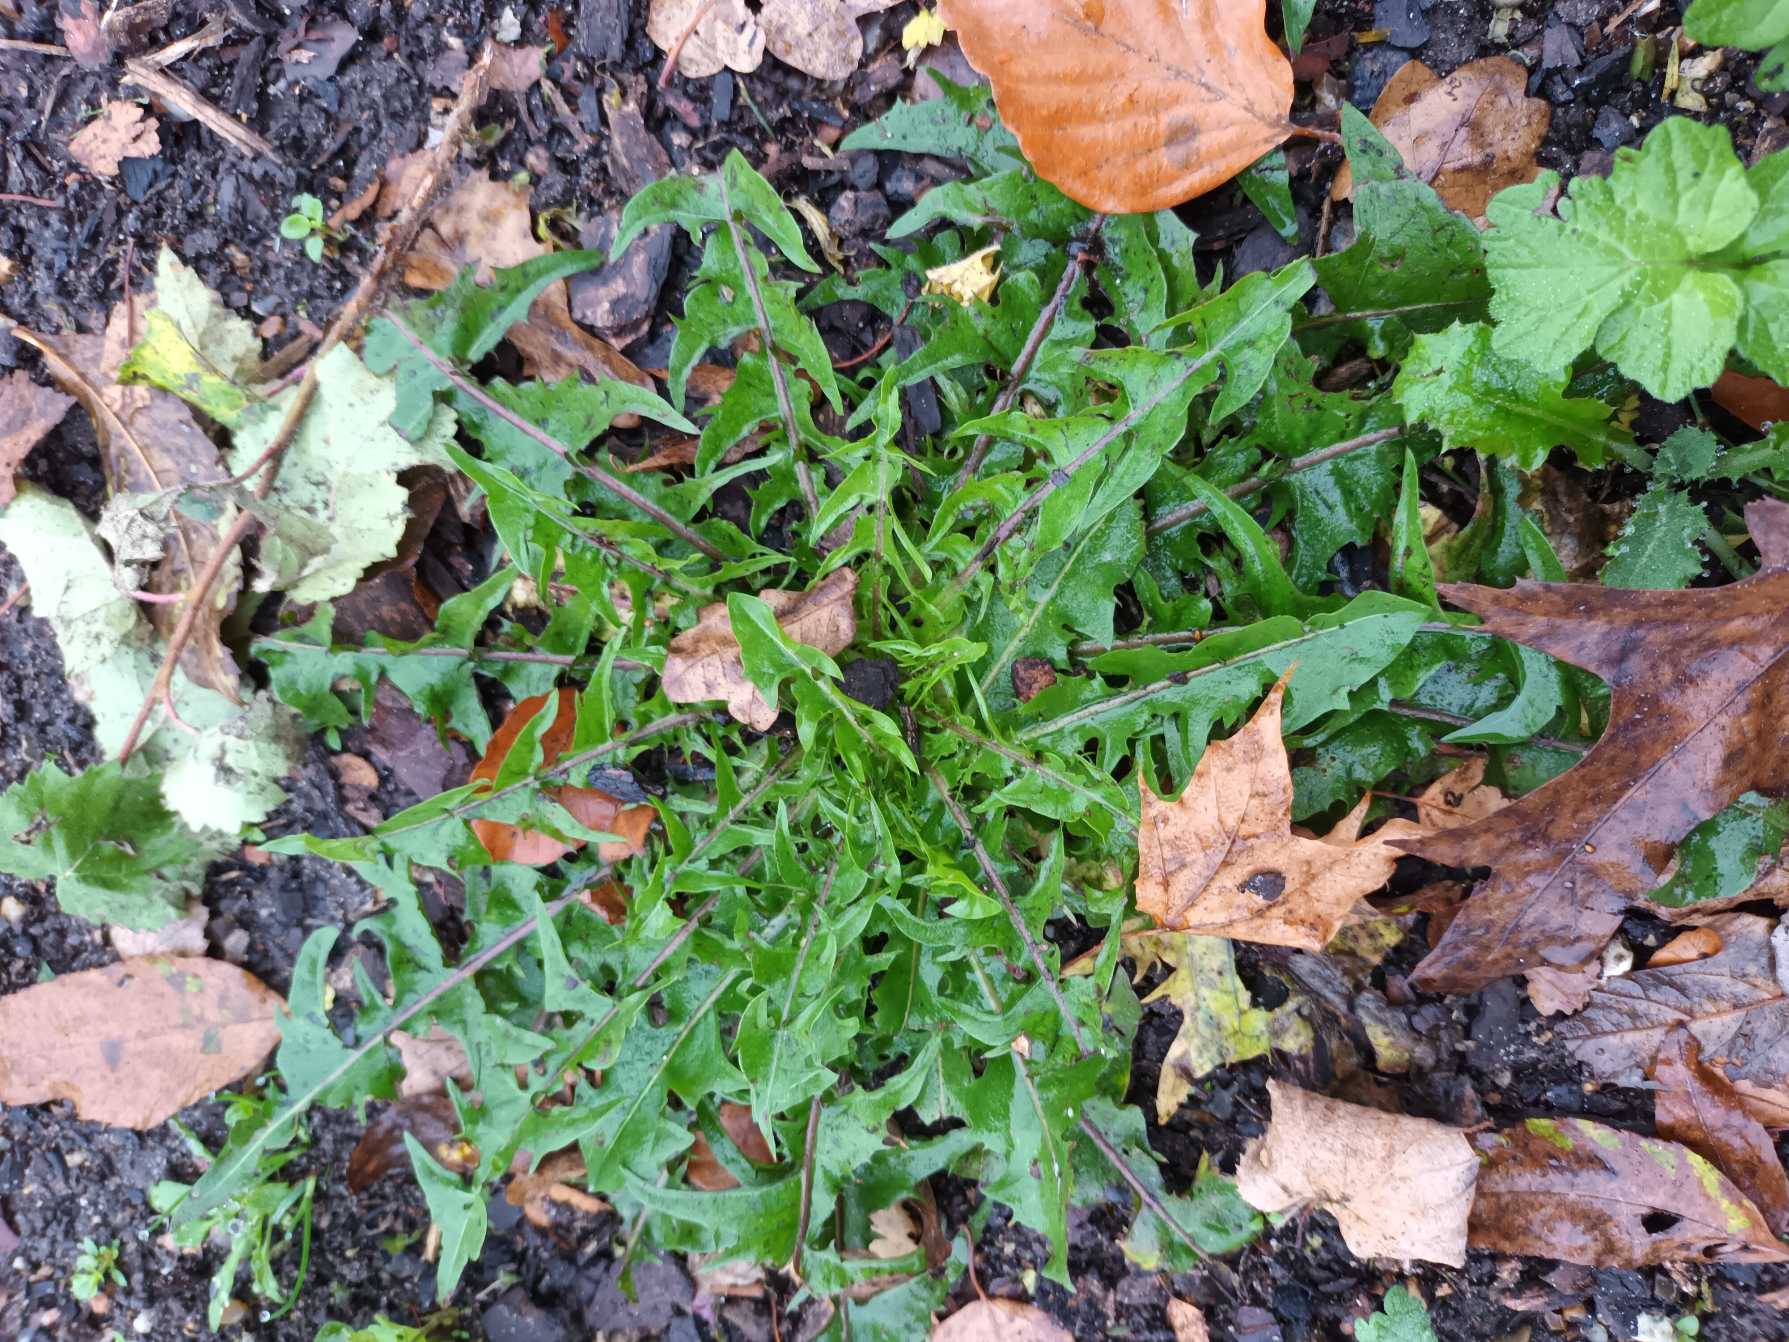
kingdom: Plantae
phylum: Tracheophyta
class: Magnoliopsida
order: Asterales
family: Asteraceae
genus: Taraxacum
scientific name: Taraxacum
